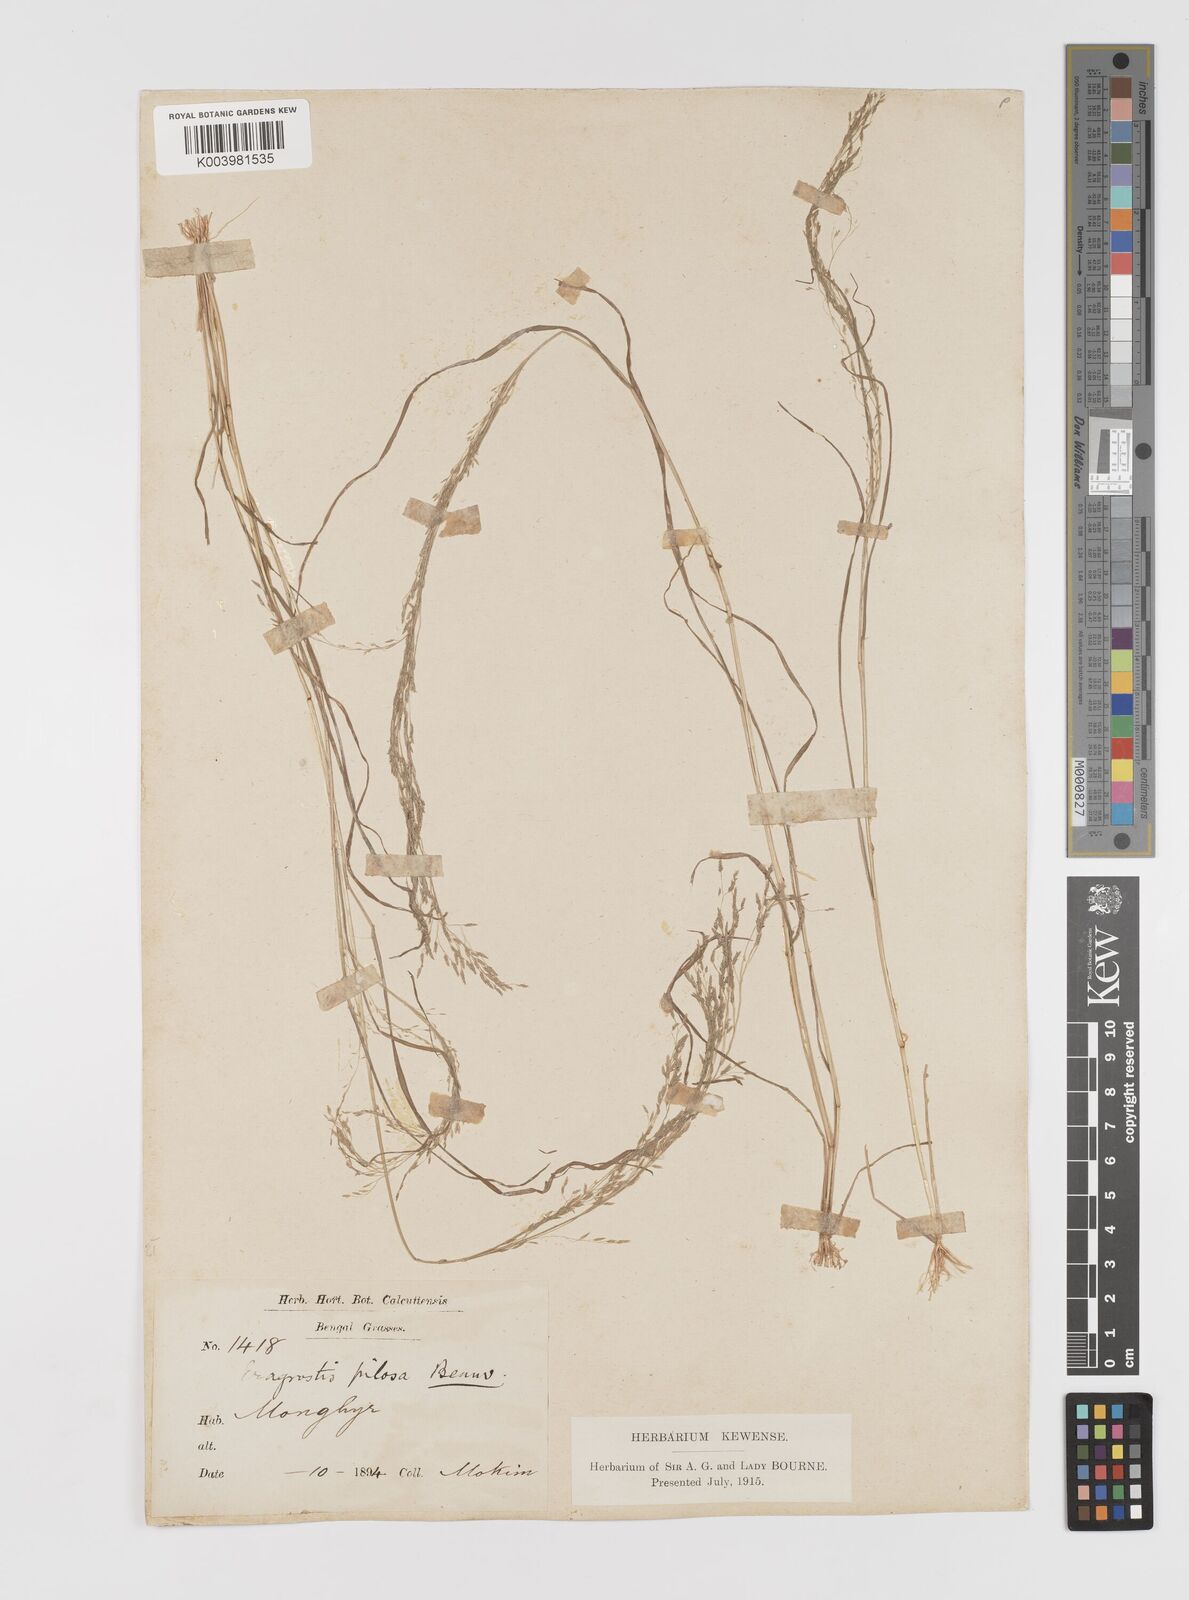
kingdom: Plantae
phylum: Tracheophyta
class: Liliopsida
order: Poales
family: Poaceae
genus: Eragrostis
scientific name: Eragrostis pilosa
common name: Indian lovegrass
